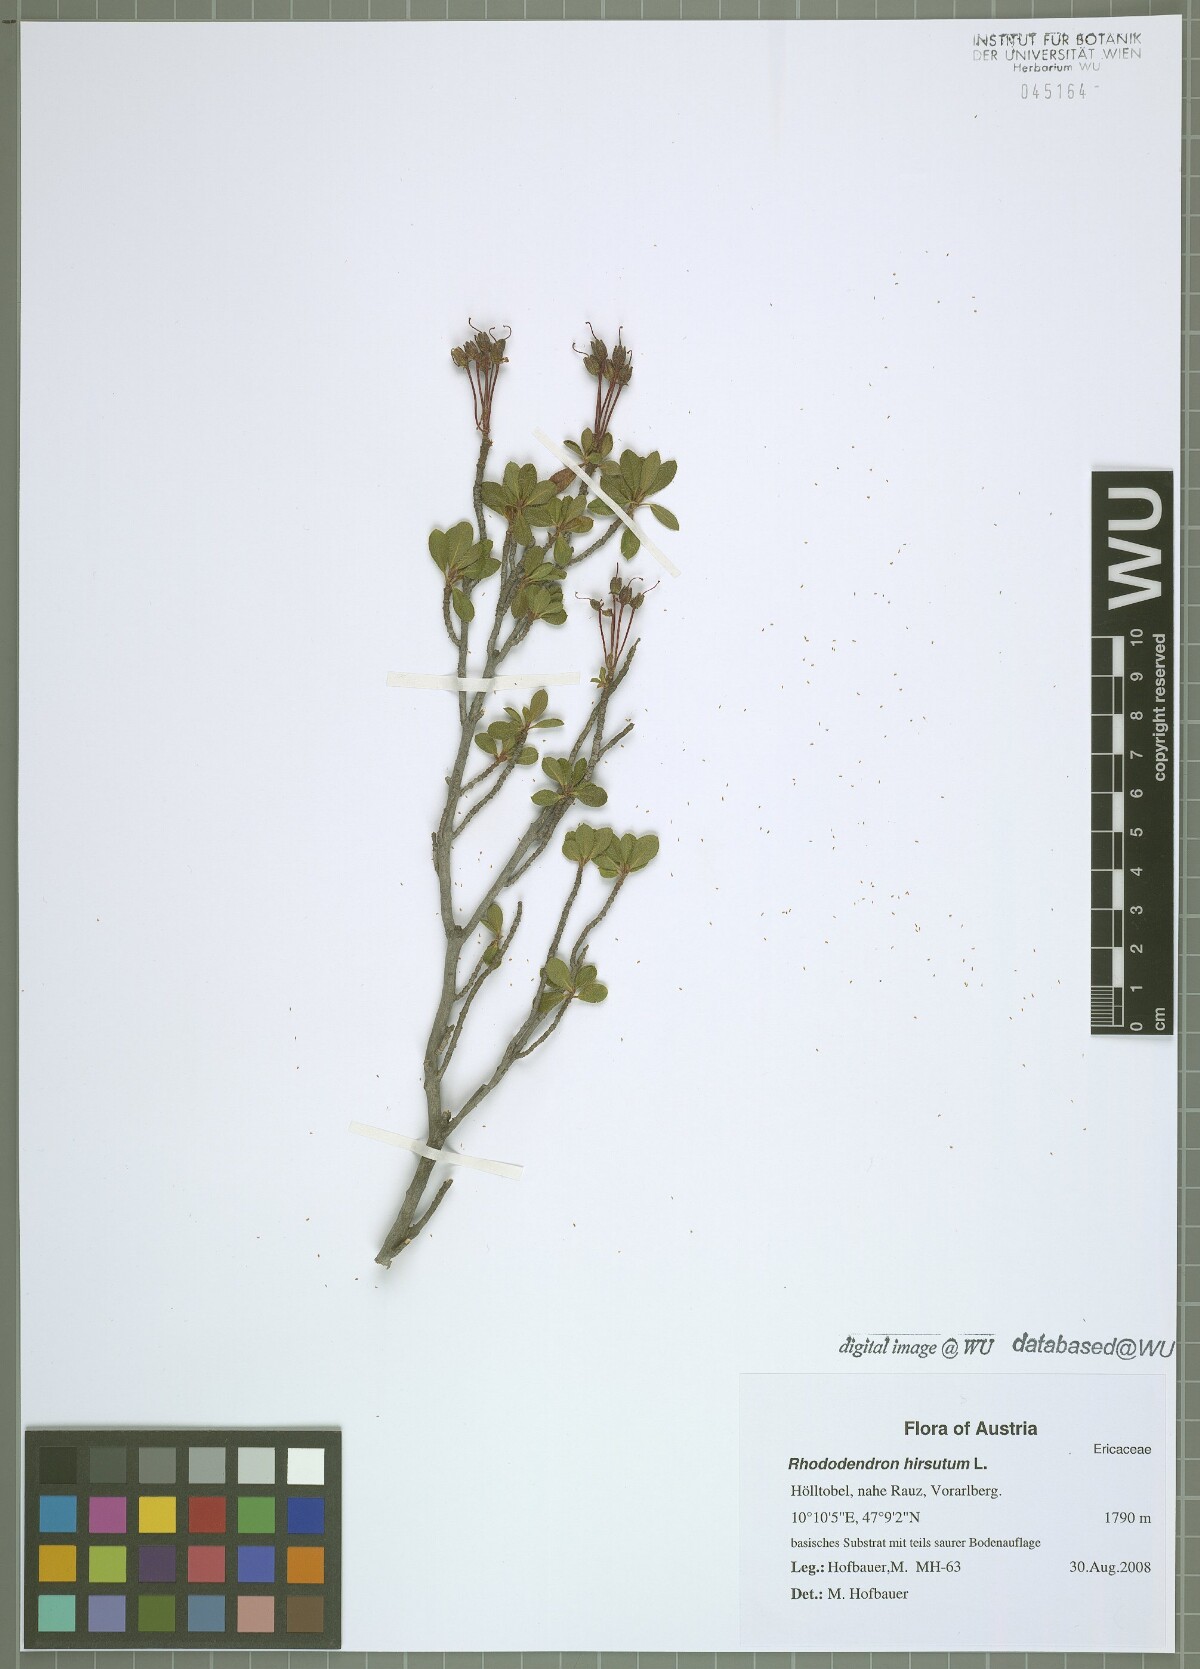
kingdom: Plantae
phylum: Tracheophyta
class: Magnoliopsida
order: Ericales
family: Ericaceae
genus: Rhododendron
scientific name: Rhododendron hirsutum
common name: Hairy alpenrose
